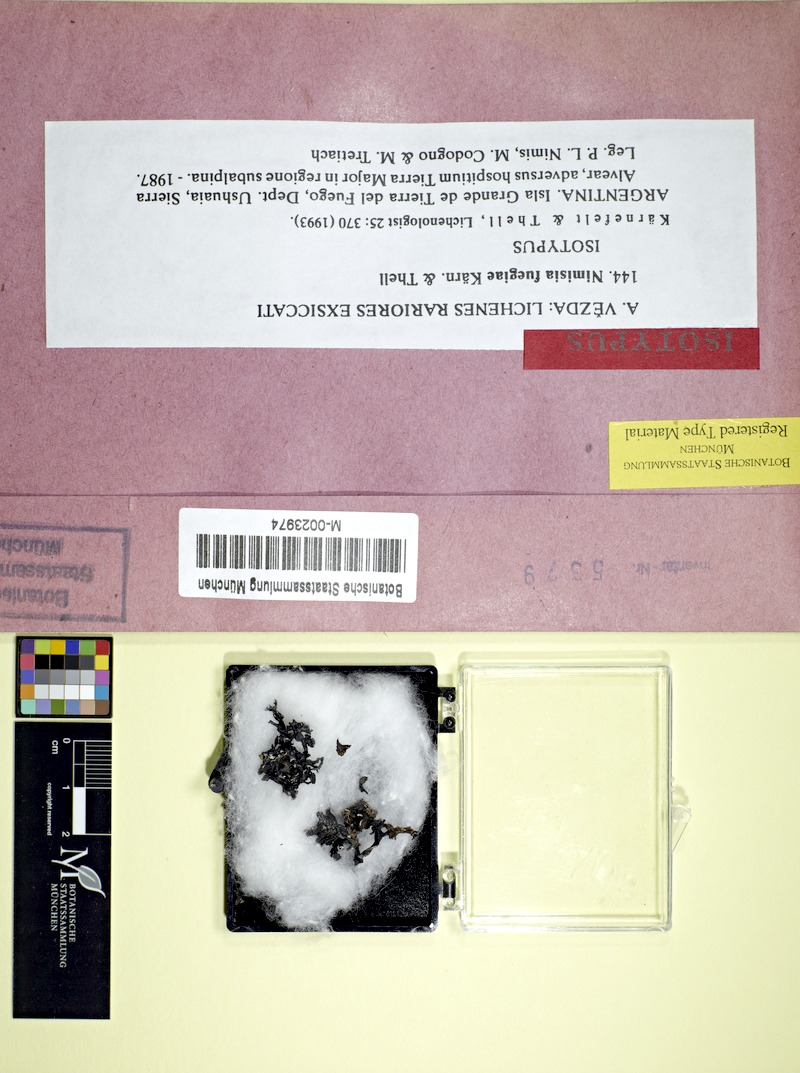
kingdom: Fungi
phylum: Ascomycota
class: Lecanoromycetes
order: Lecanorales
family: Parmeliaceae
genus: Himantormia
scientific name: Himantormia deusta
